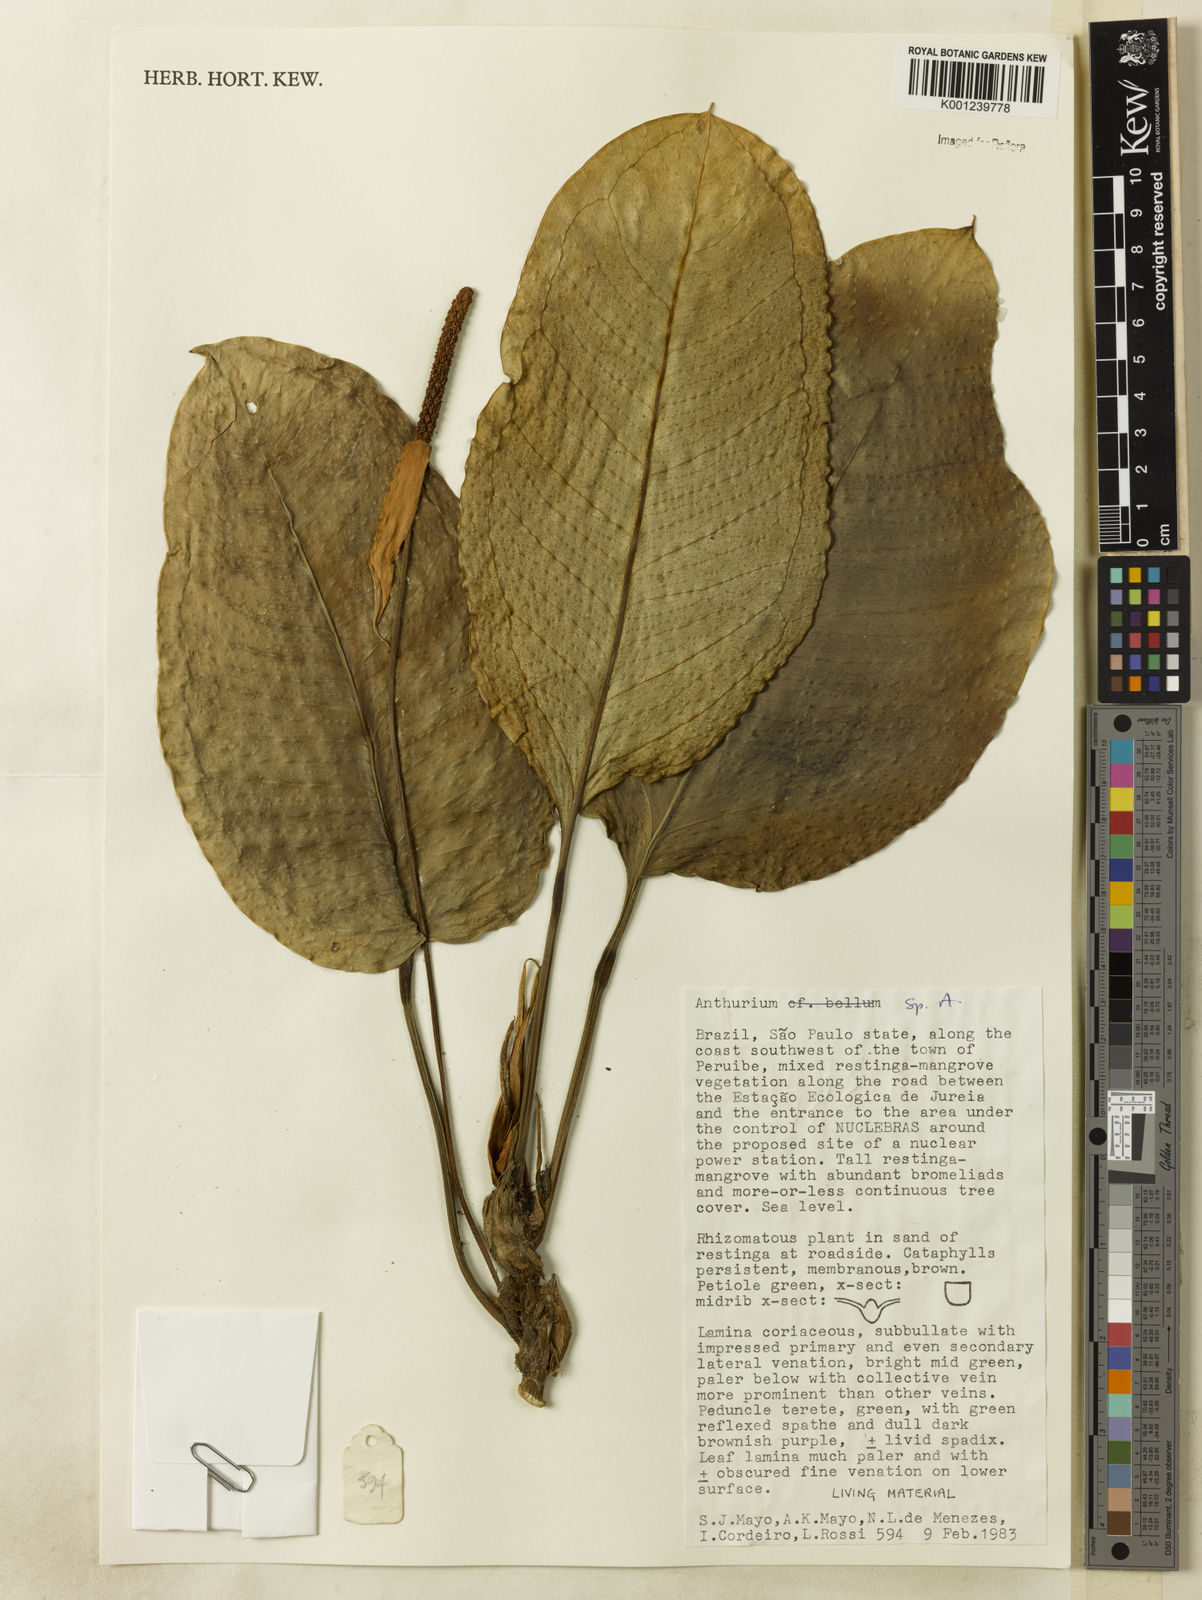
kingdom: Plantae
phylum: Tracheophyta
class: Liliopsida
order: Alismatales
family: Araceae
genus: Anthurium
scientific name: Anthurium
